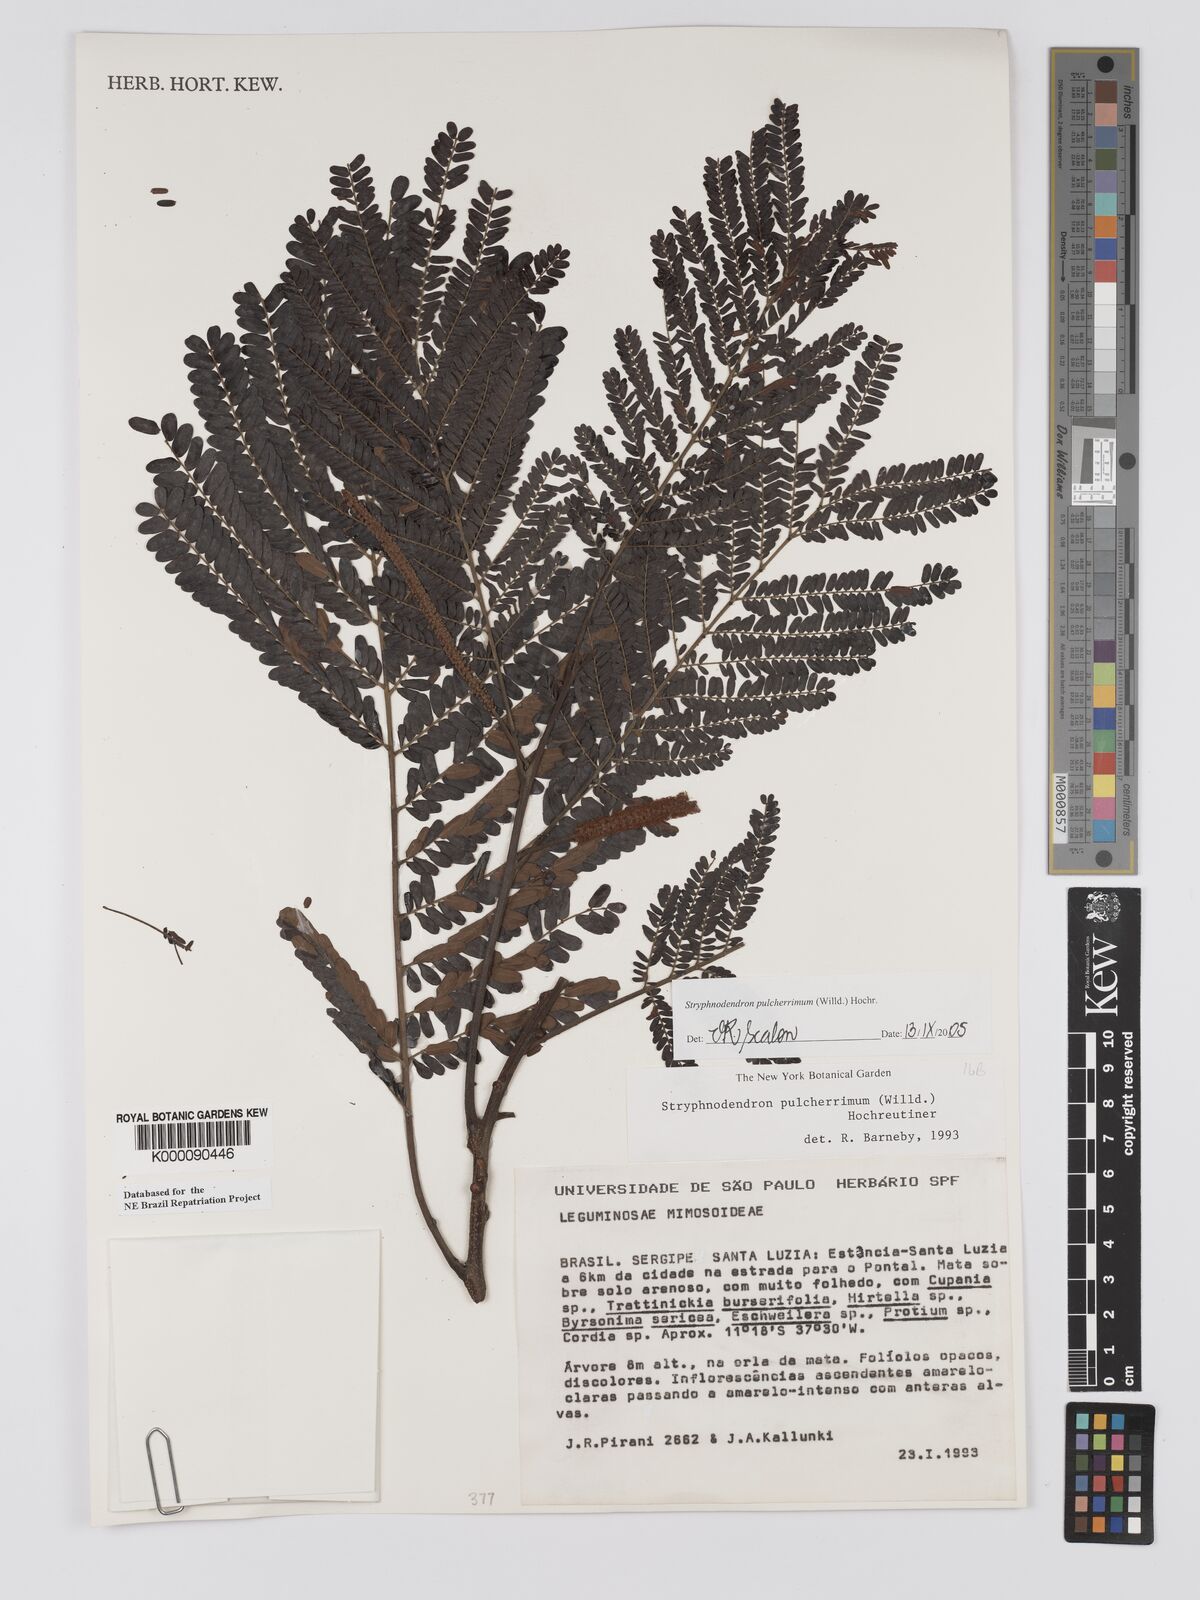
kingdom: Plantae
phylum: Tracheophyta
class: Magnoliopsida
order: Fabales
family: Fabaceae
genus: Stryphnodendron
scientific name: Stryphnodendron pulcherrimum
